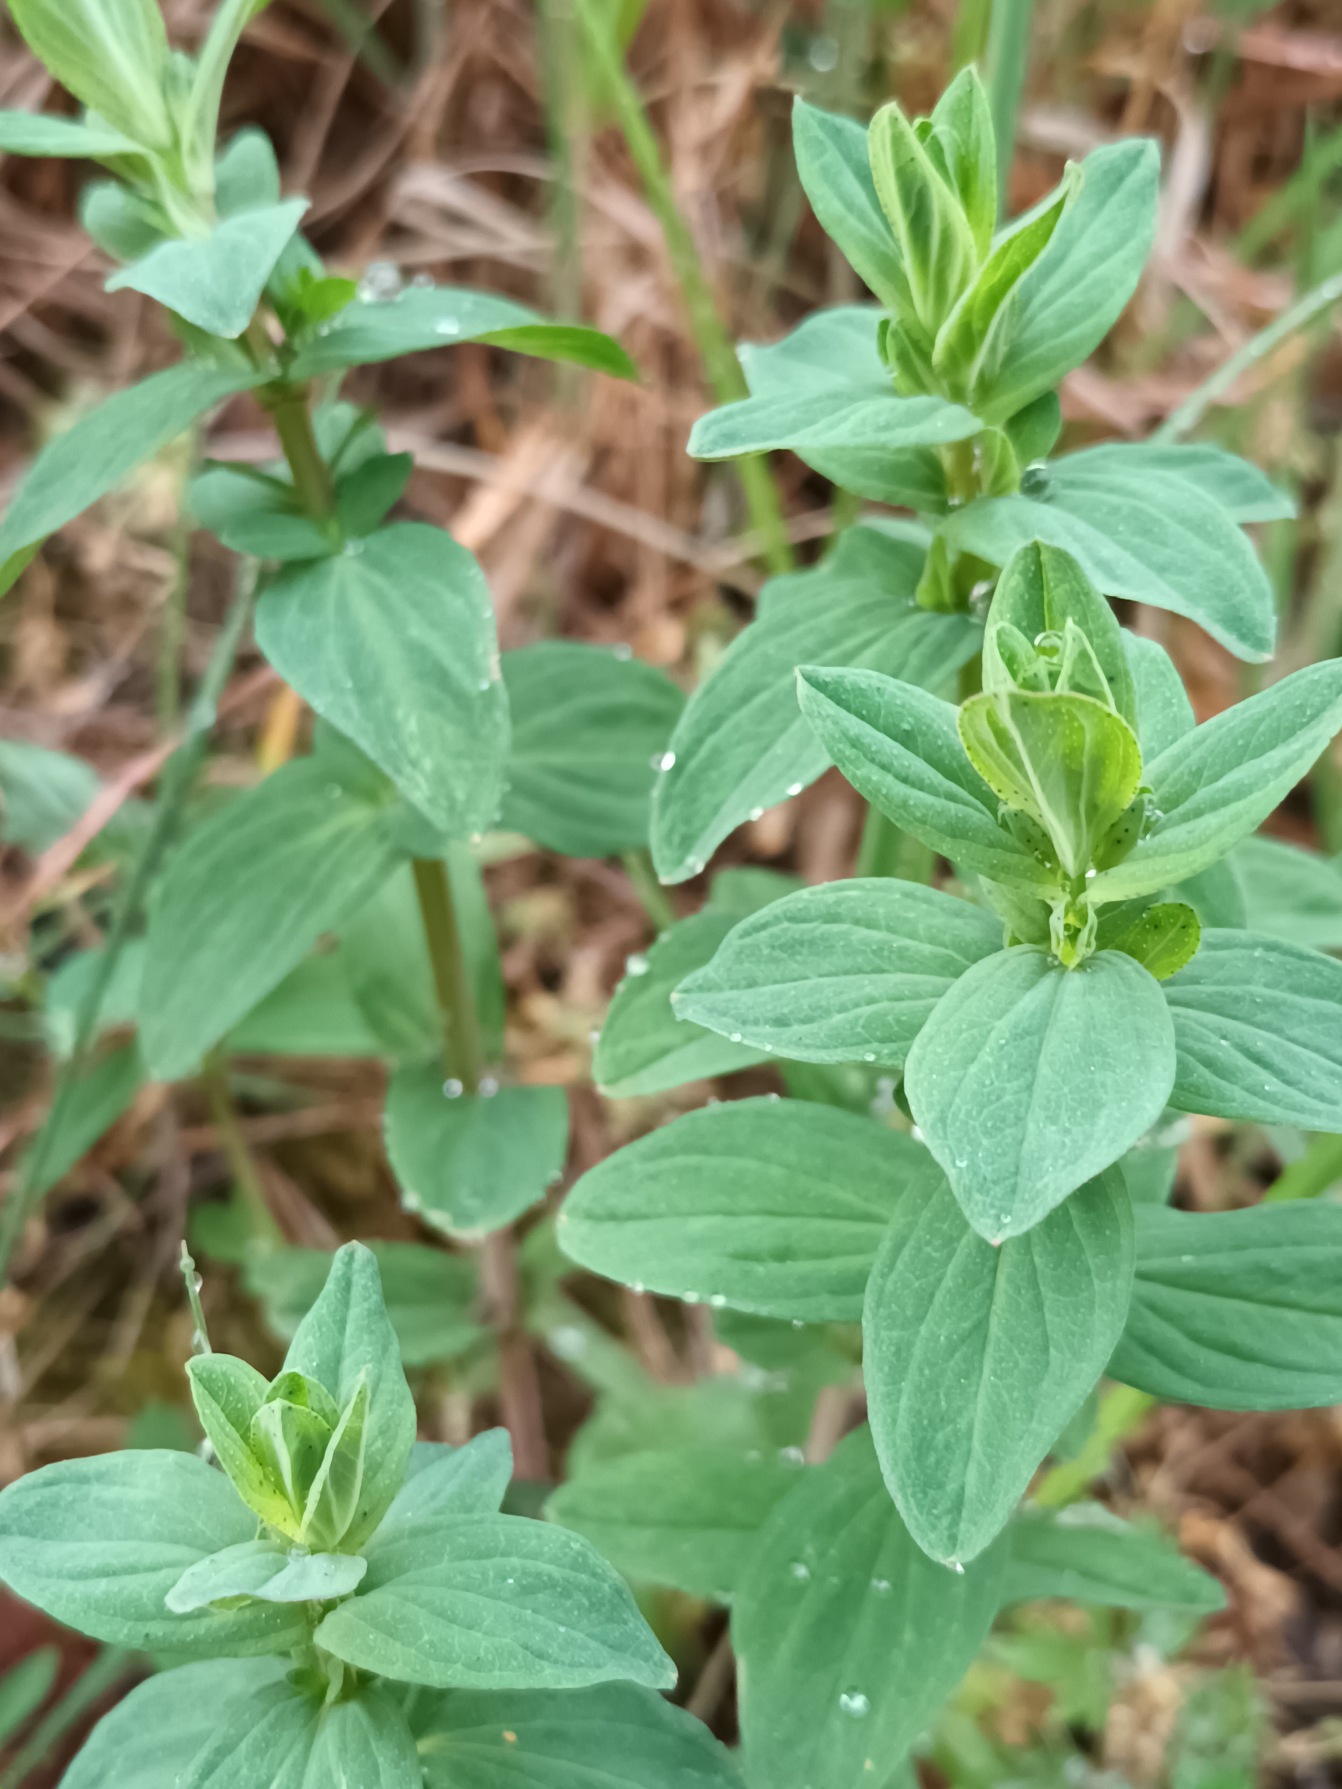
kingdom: Plantae
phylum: Tracheophyta
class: Magnoliopsida
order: Malpighiales
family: Hypericaceae
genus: Hypericum
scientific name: Hypericum perforatum
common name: Prikbladet perikon
